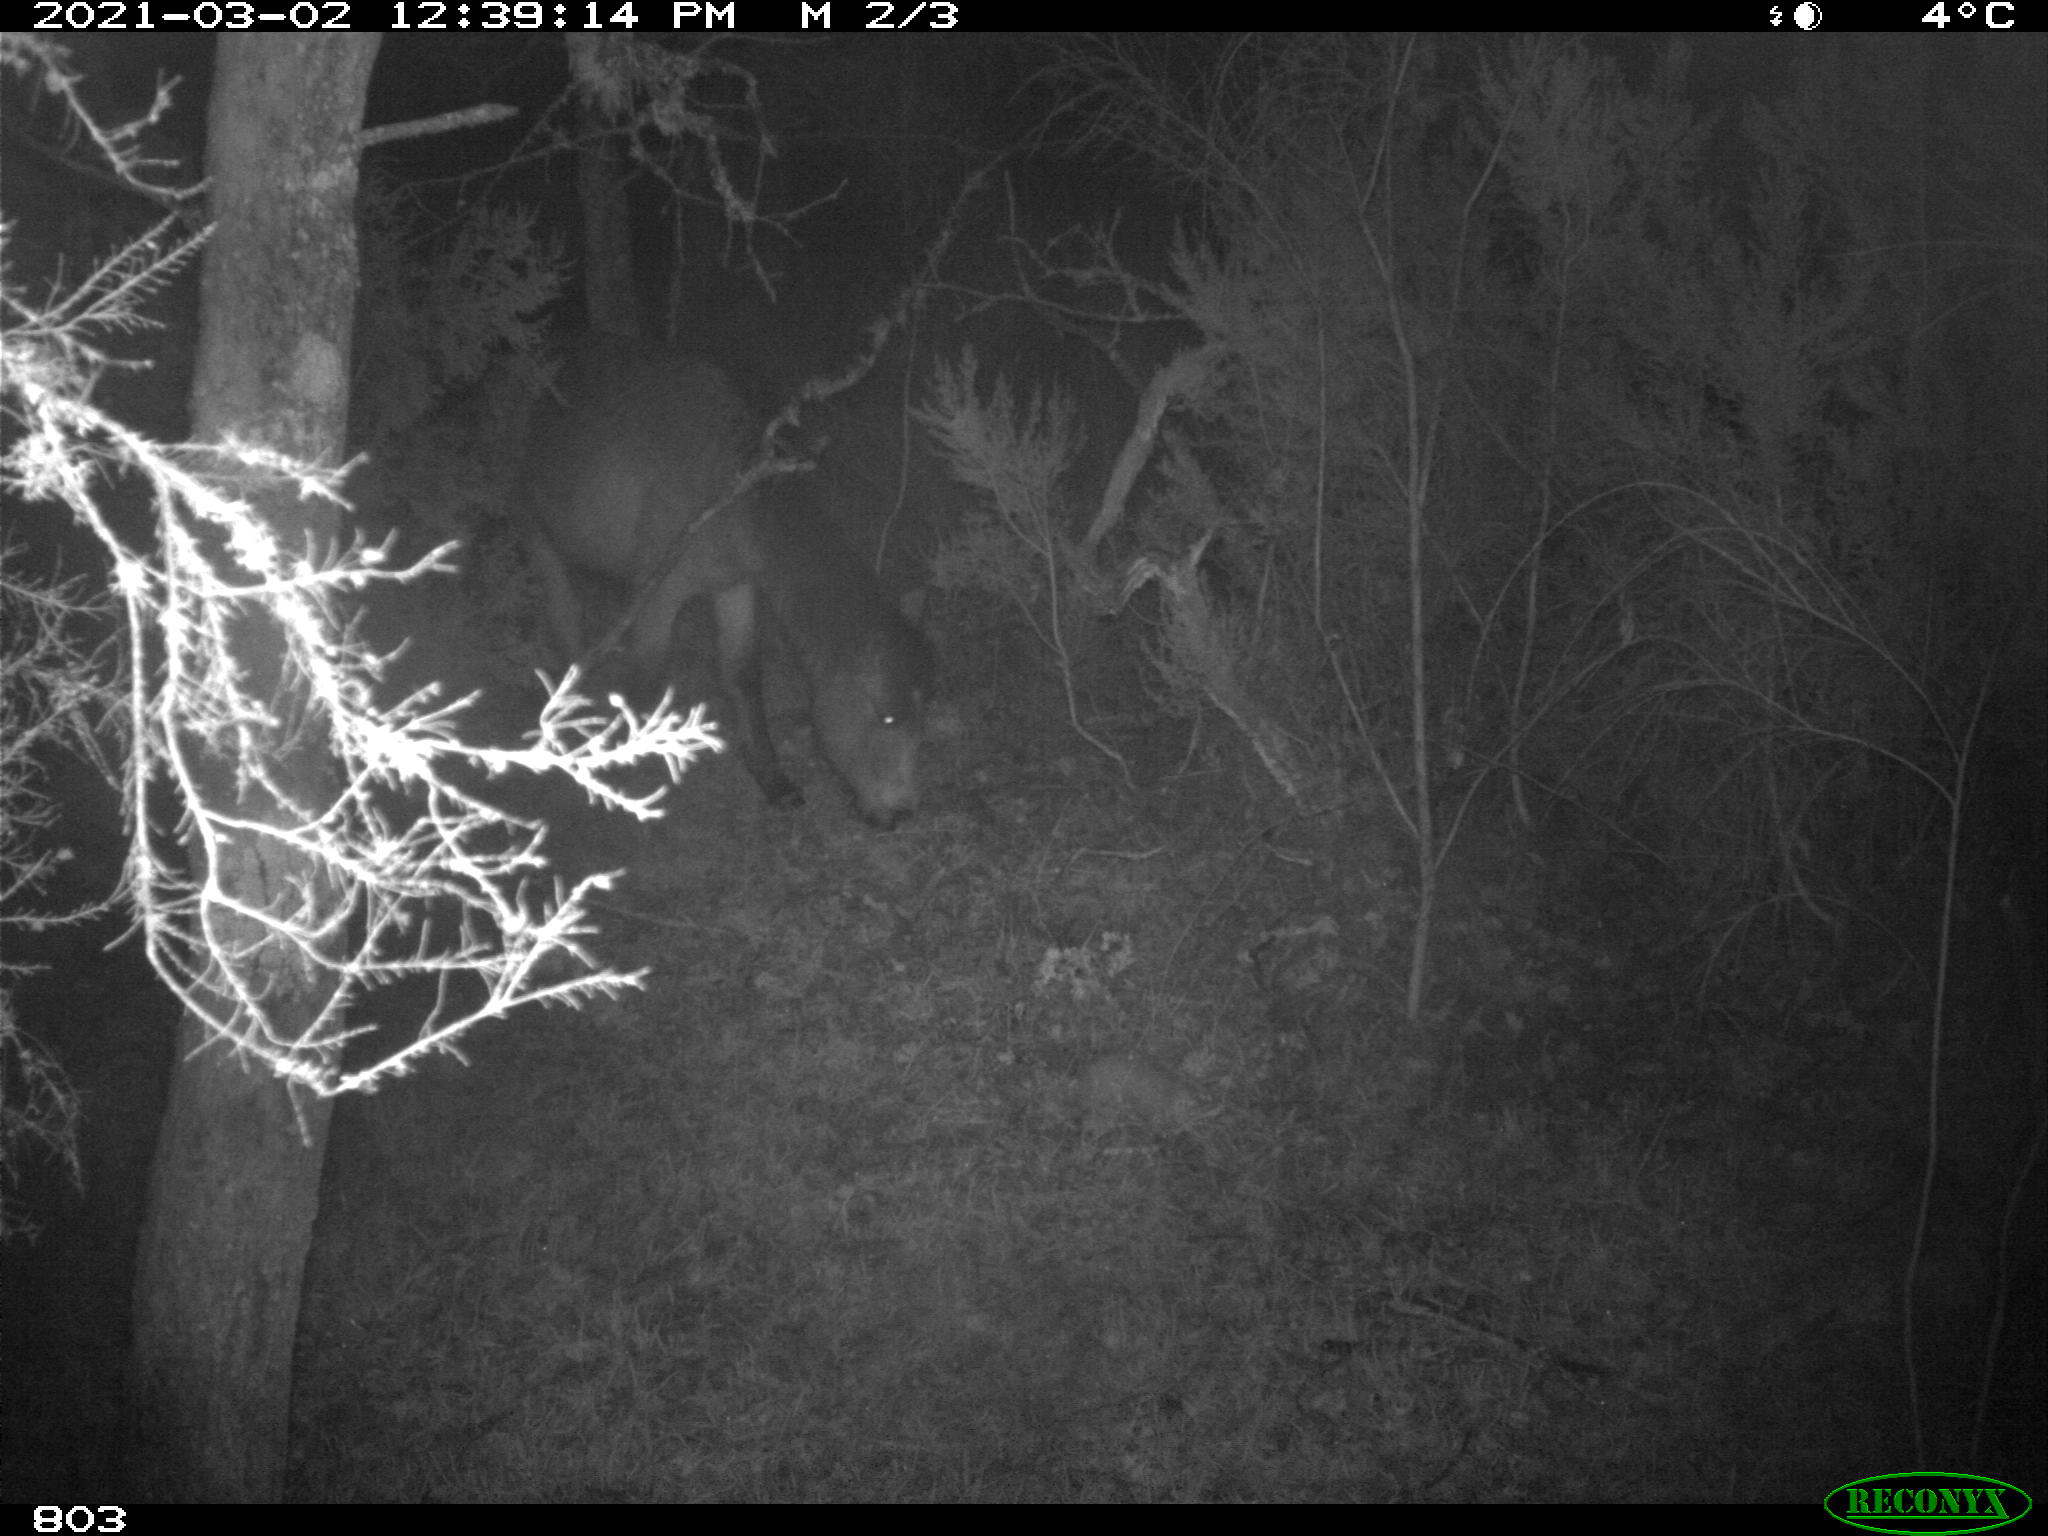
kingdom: Animalia
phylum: Chordata
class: Mammalia
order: Perissodactyla
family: Equidae
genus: Equus
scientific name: Equus caballus
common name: Horse
